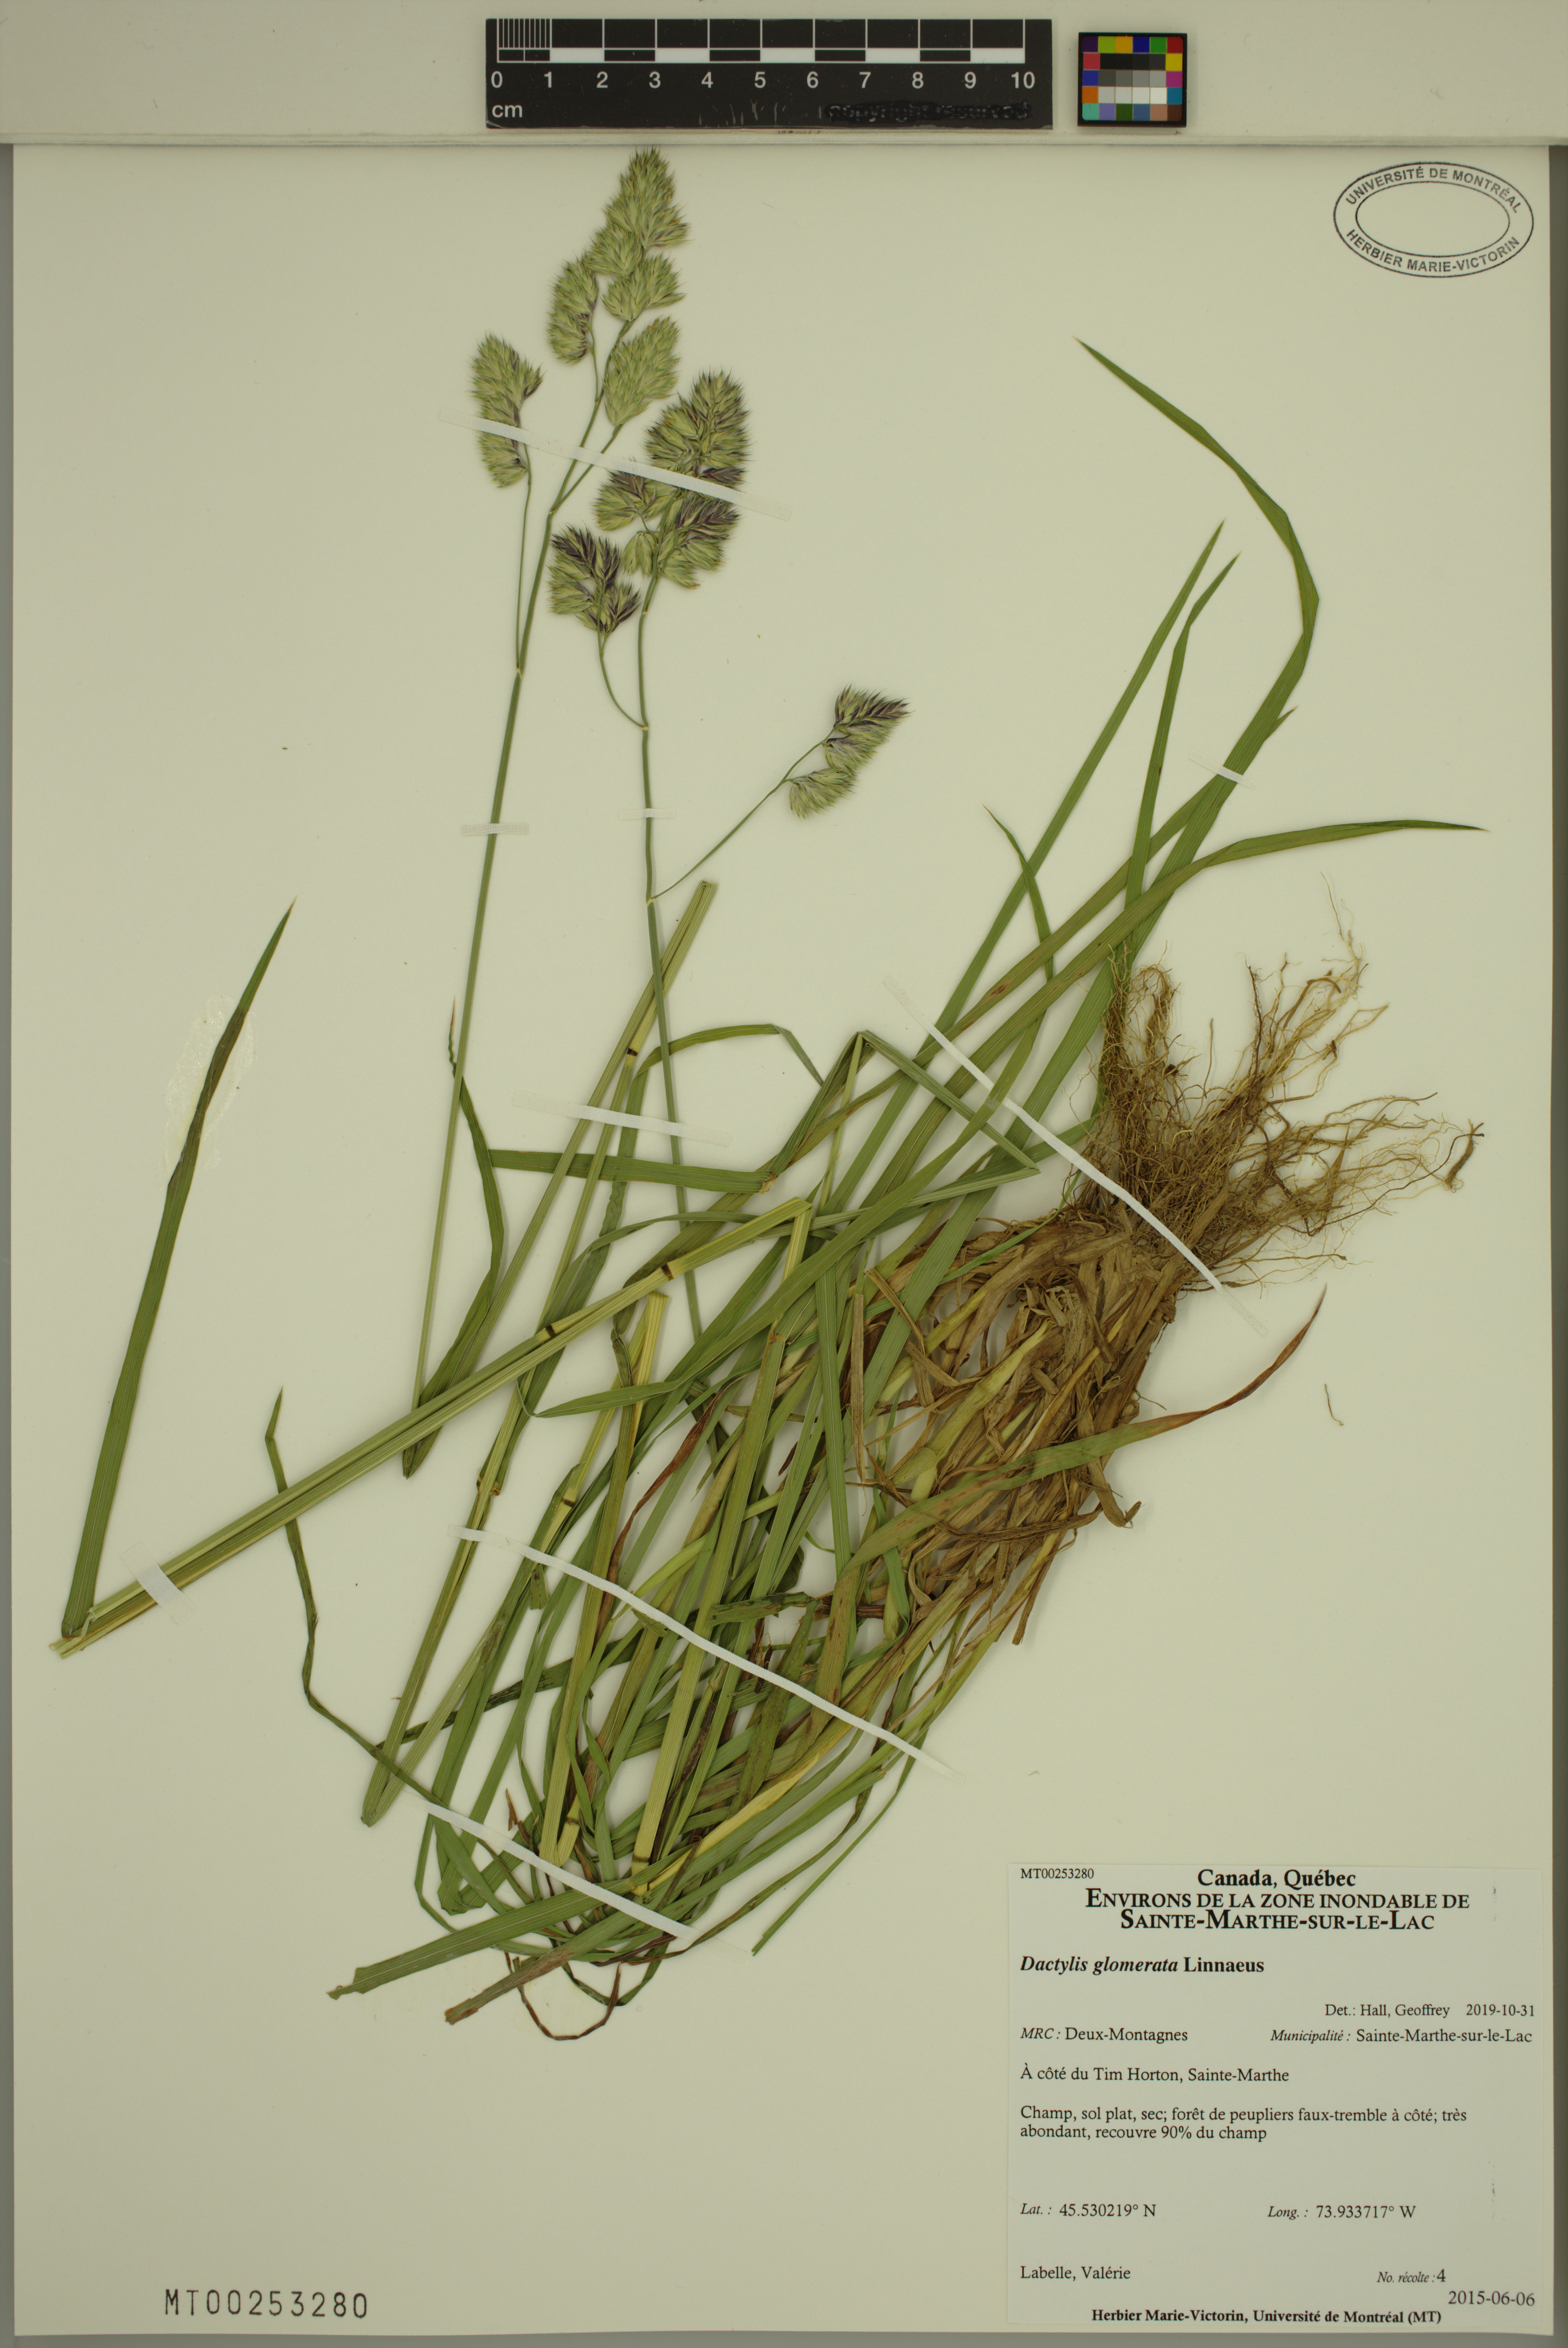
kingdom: Plantae
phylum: Tracheophyta
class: Liliopsida
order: Poales
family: Poaceae
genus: Dactylis
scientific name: Dactylis glomerata
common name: Orchardgrass
